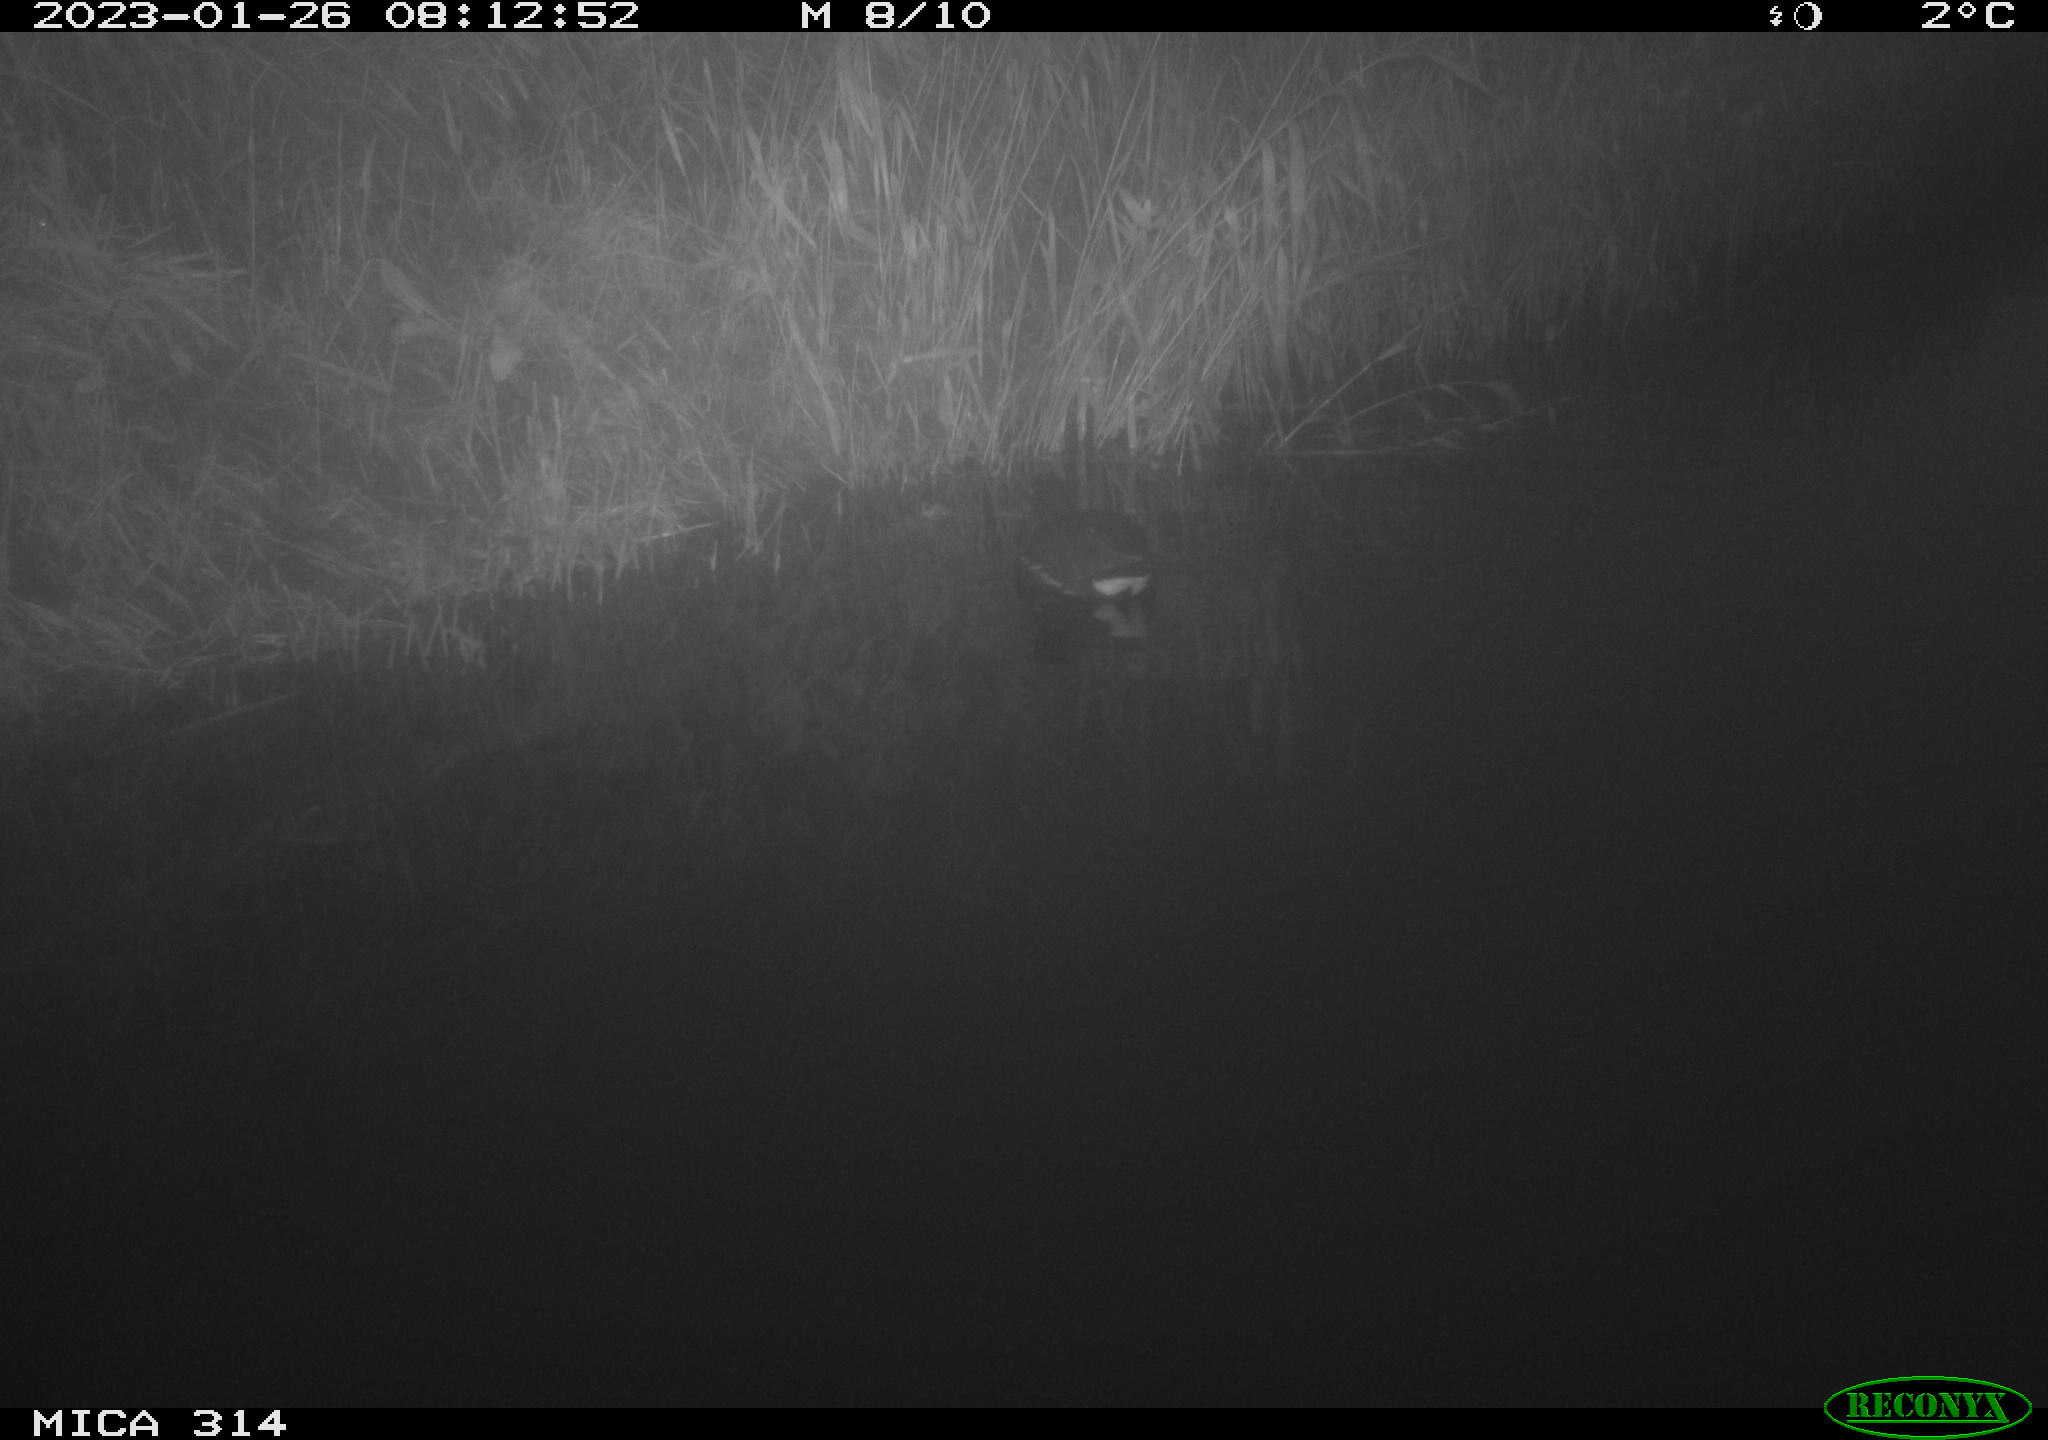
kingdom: Animalia
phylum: Chordata
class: Aves
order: Gruiformes
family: Rallidae
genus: Gallinula
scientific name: Gallinula chloropus
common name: Common moorhen
